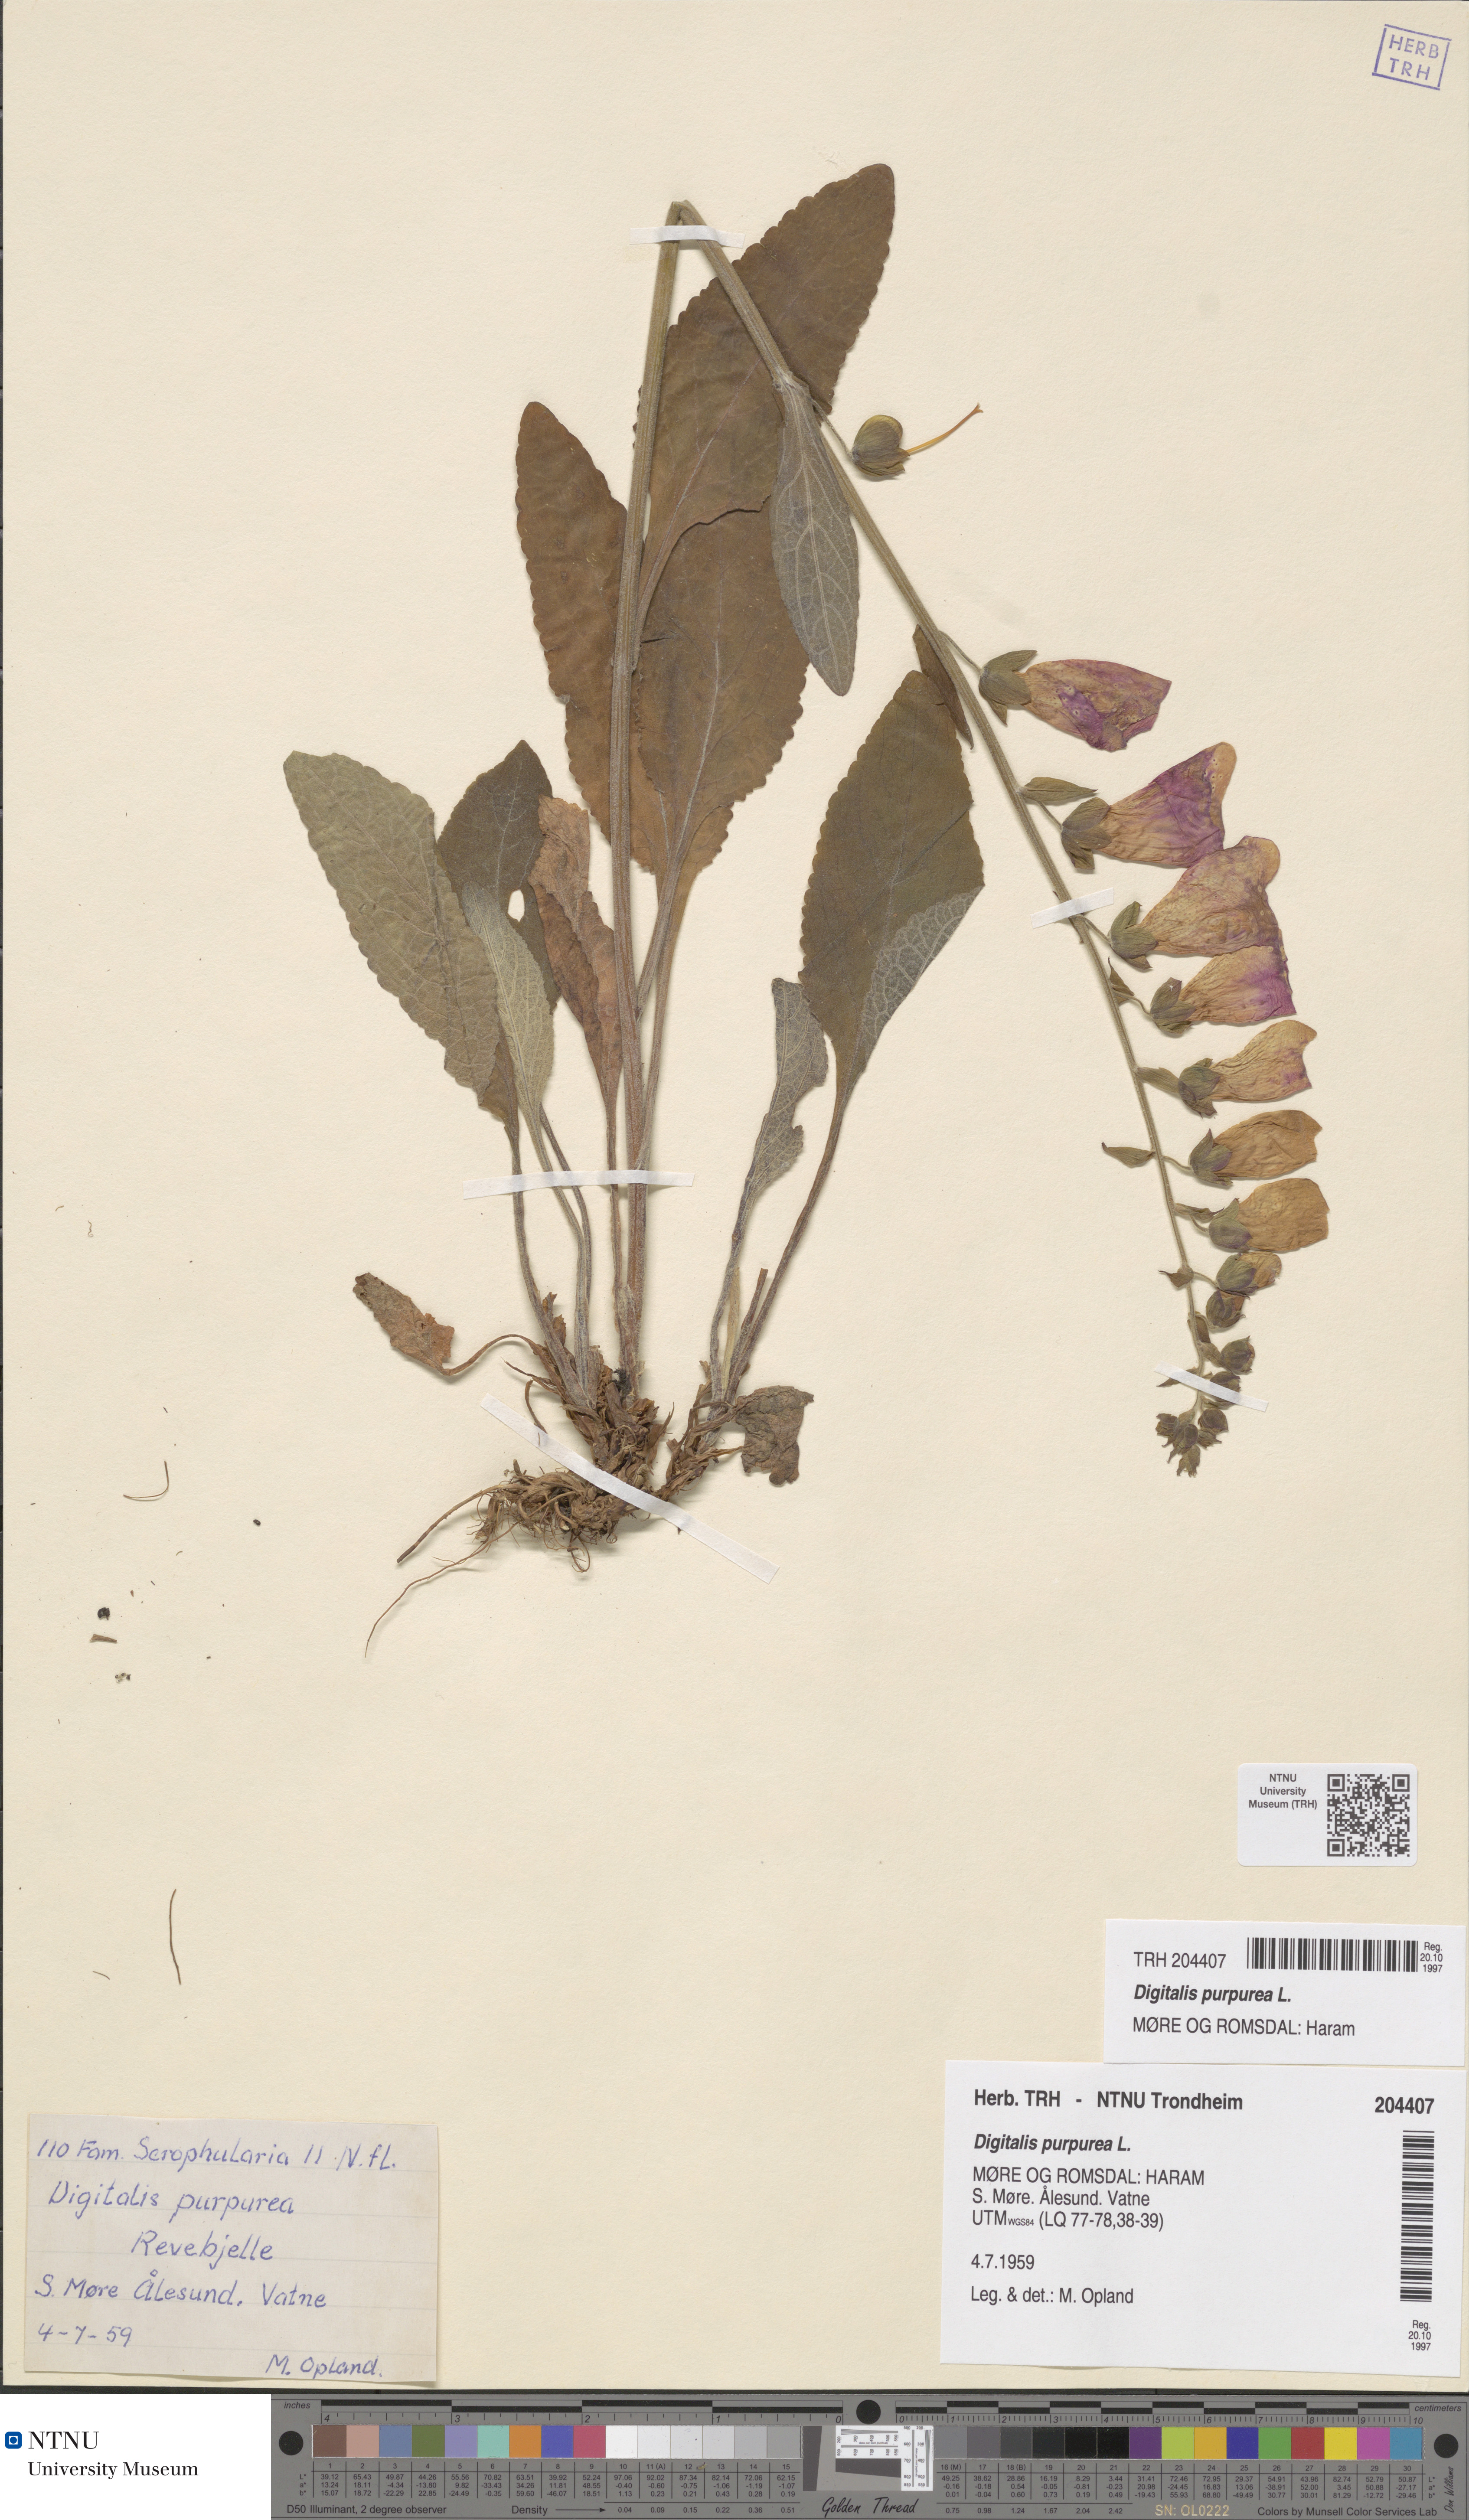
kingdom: Plantae
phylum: Tracheophyta
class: Magnoliopsida
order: Lamiales
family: Plantaginaceae
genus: Digitalis
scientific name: Digitalis purpurea
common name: Foxglove
